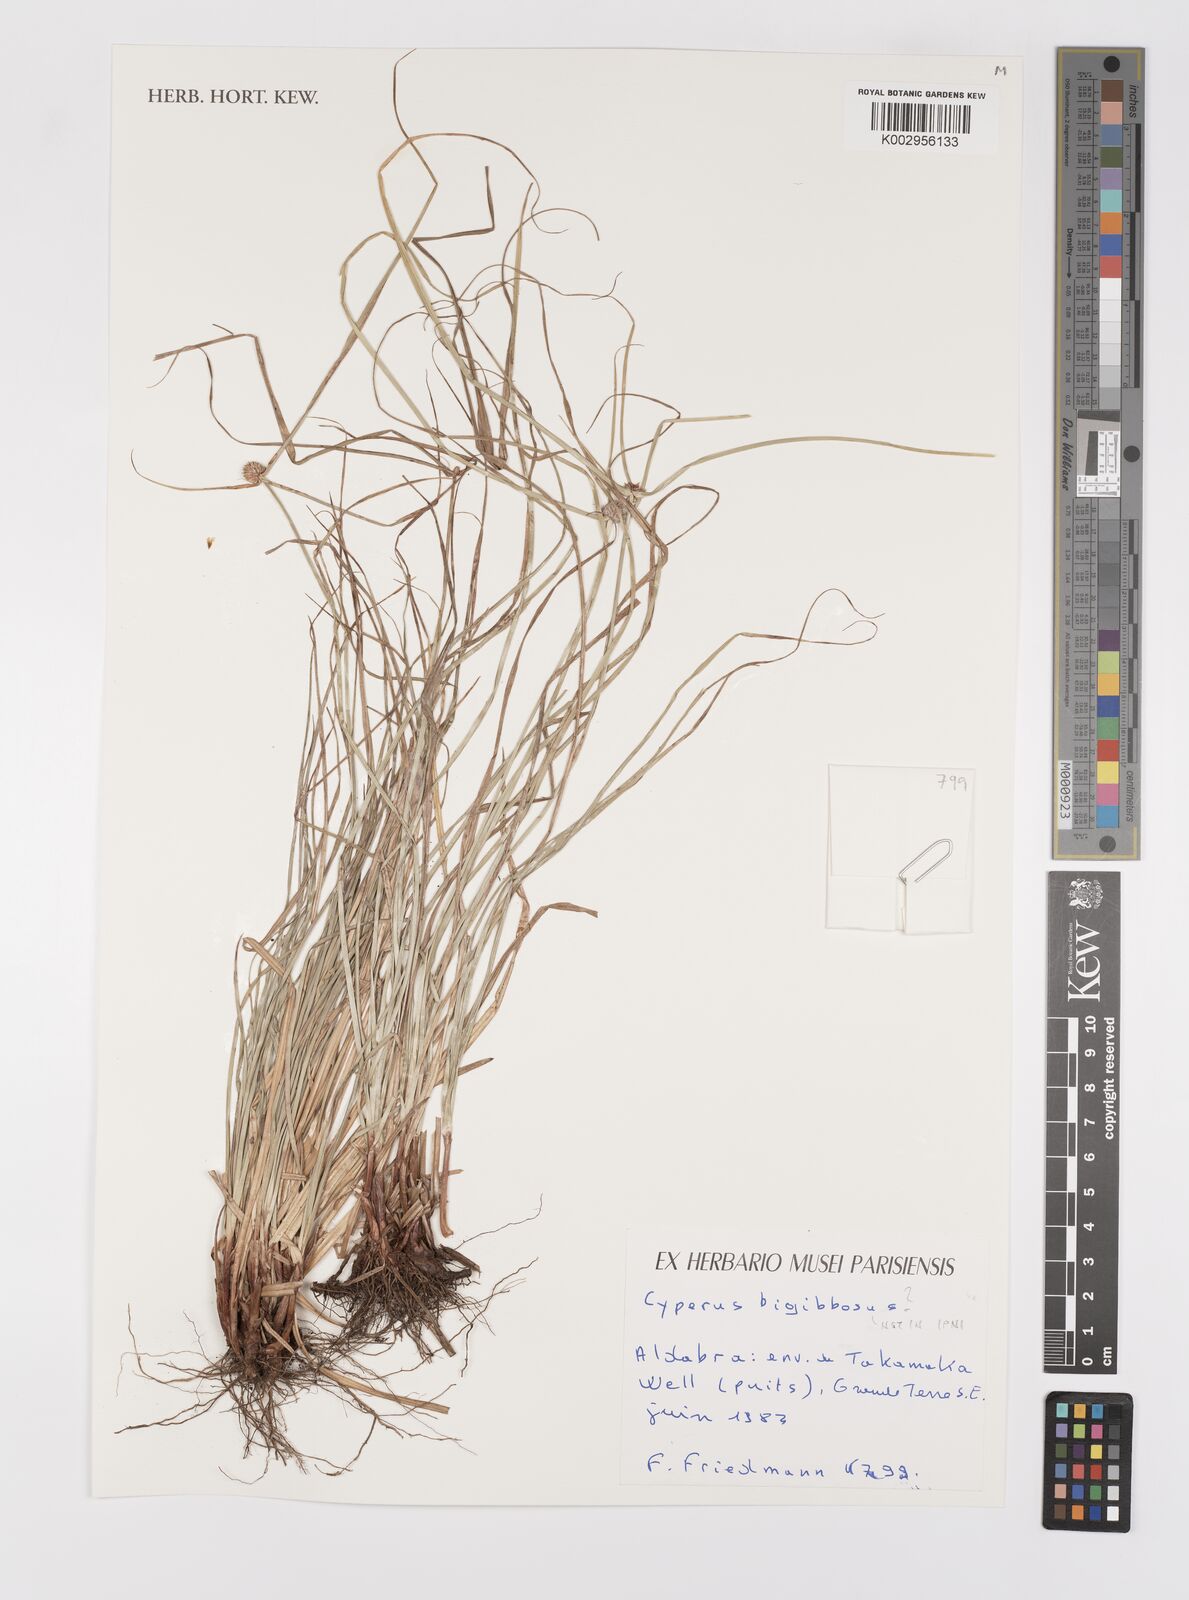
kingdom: Plantae
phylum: Tracheophyta
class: Liliopsida
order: Poales
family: Cyperaceae
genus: Cyperus
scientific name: Cyperus bigibbosa
